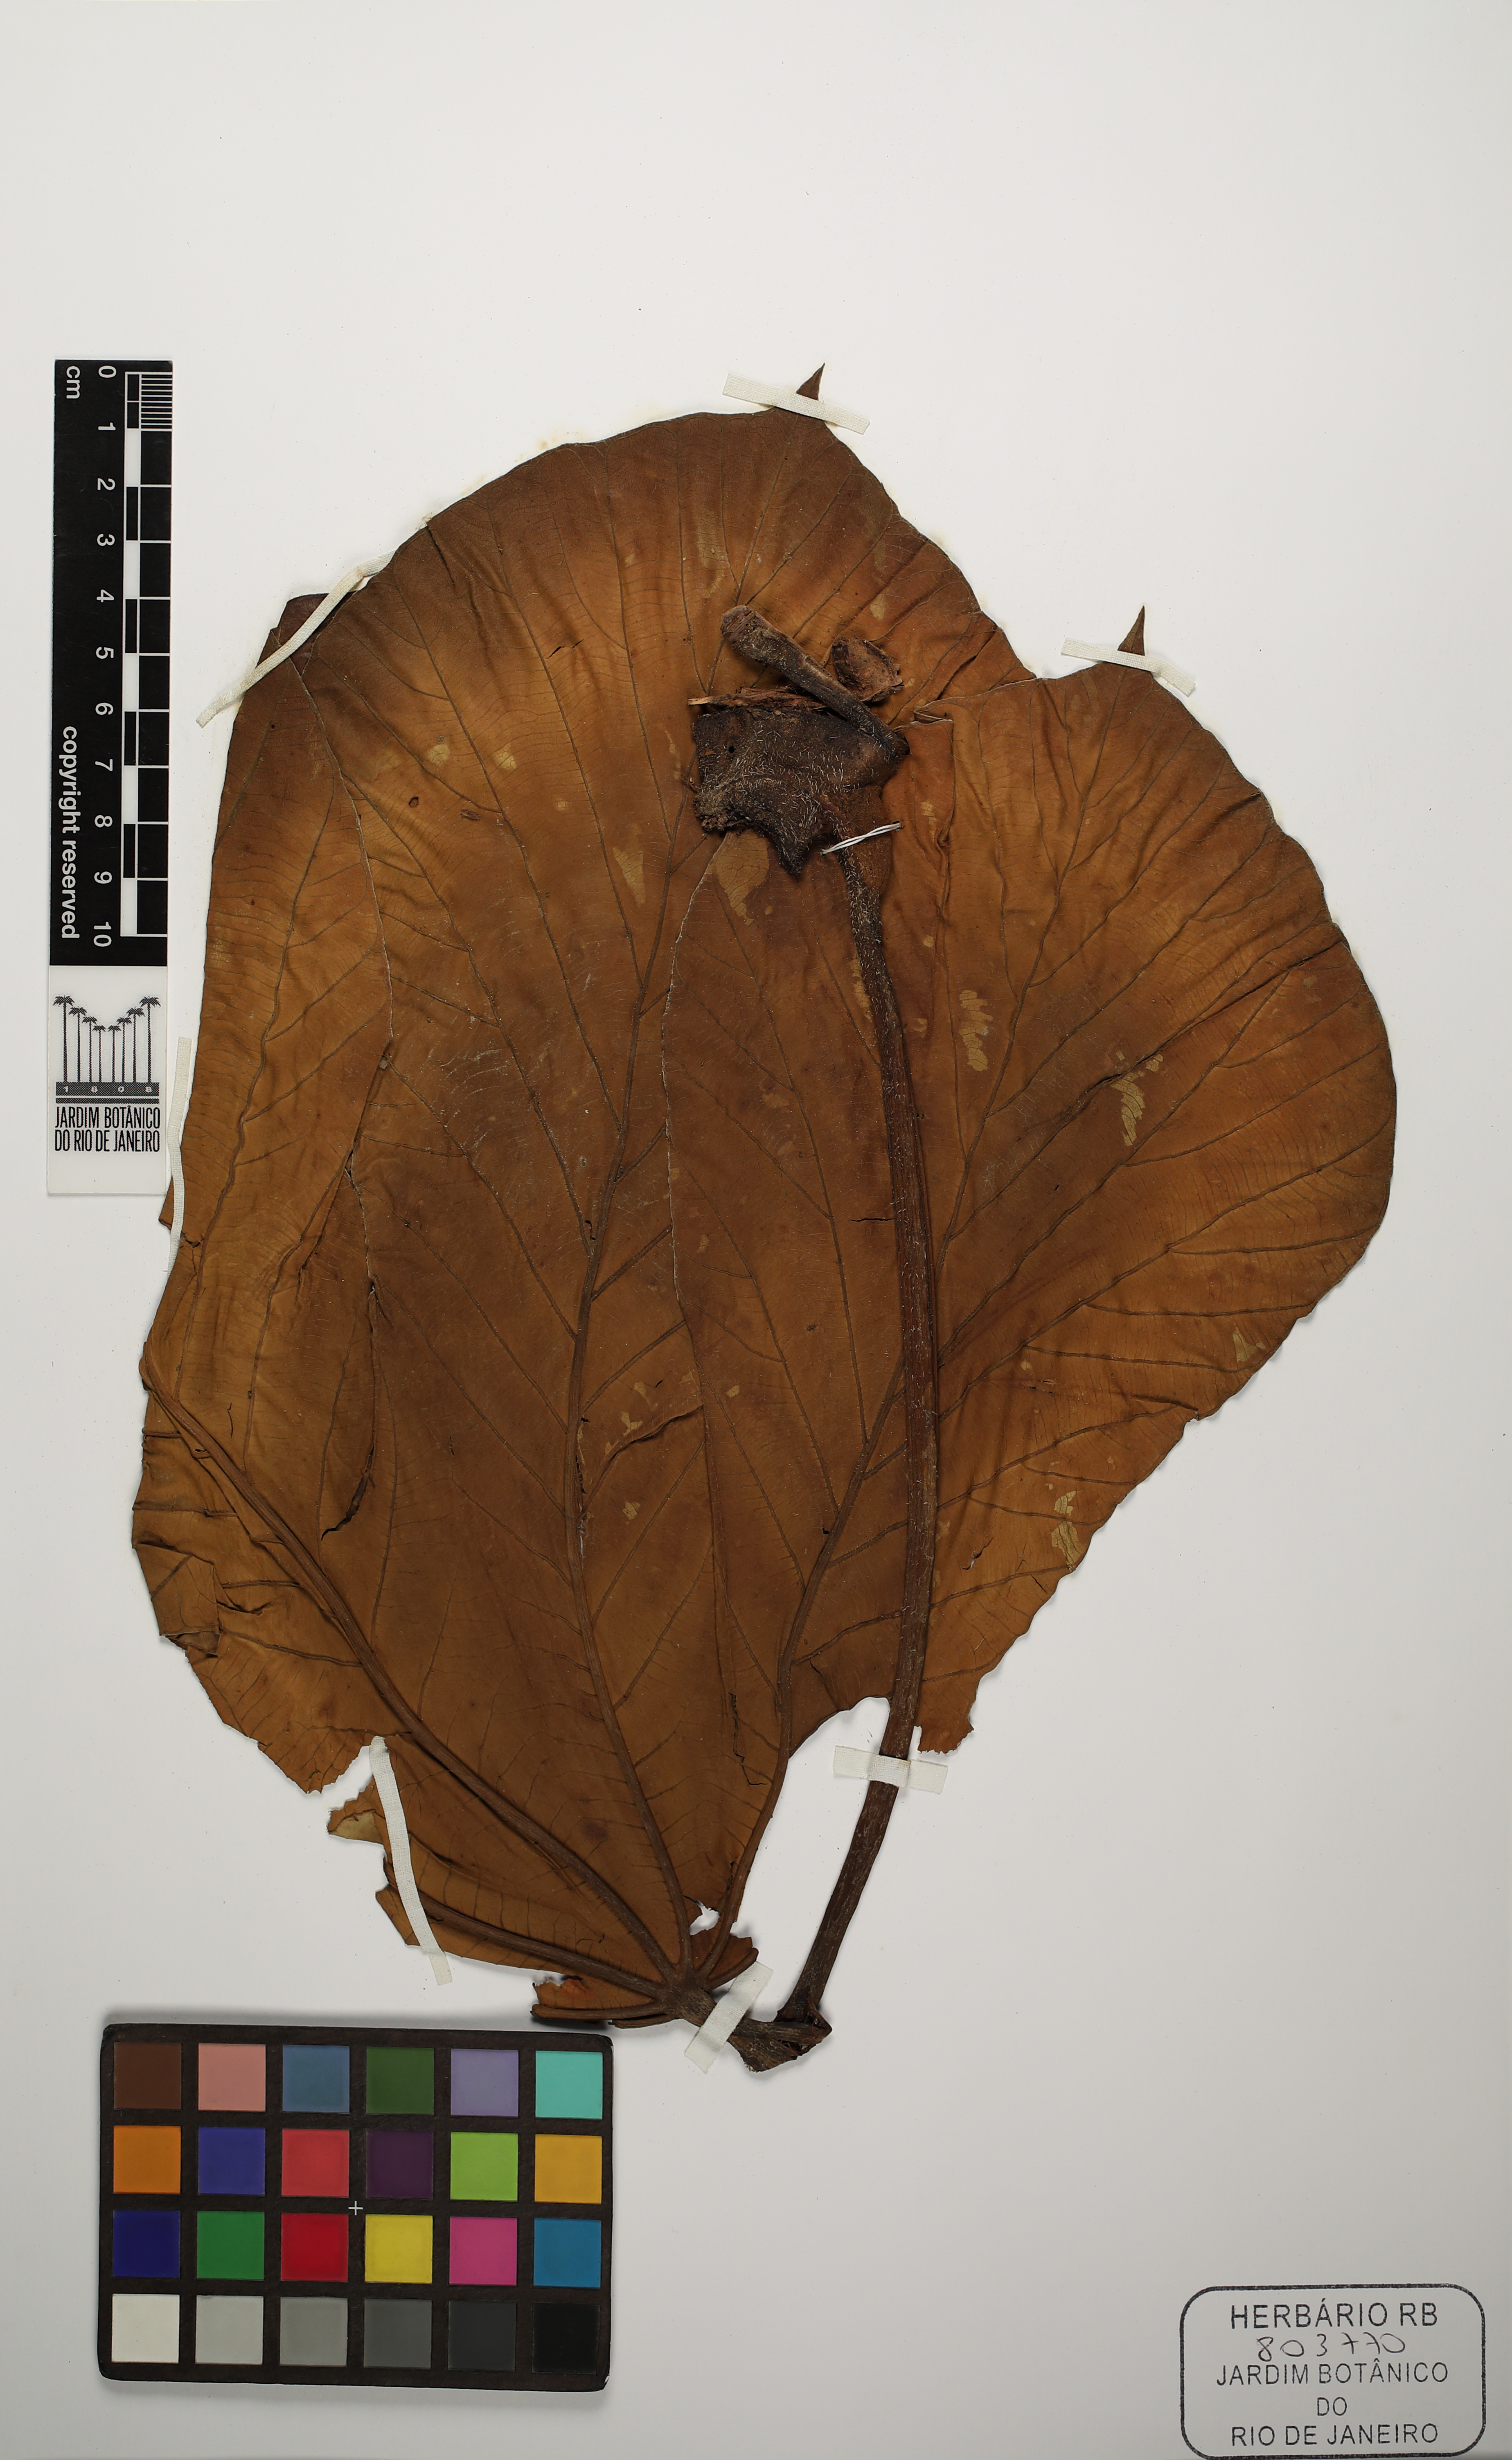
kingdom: Plantae
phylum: Tracheophyta
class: Magnoliopsida
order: Rosales
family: Urticaceae
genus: Cecropia
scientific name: Cecropia membranacea
